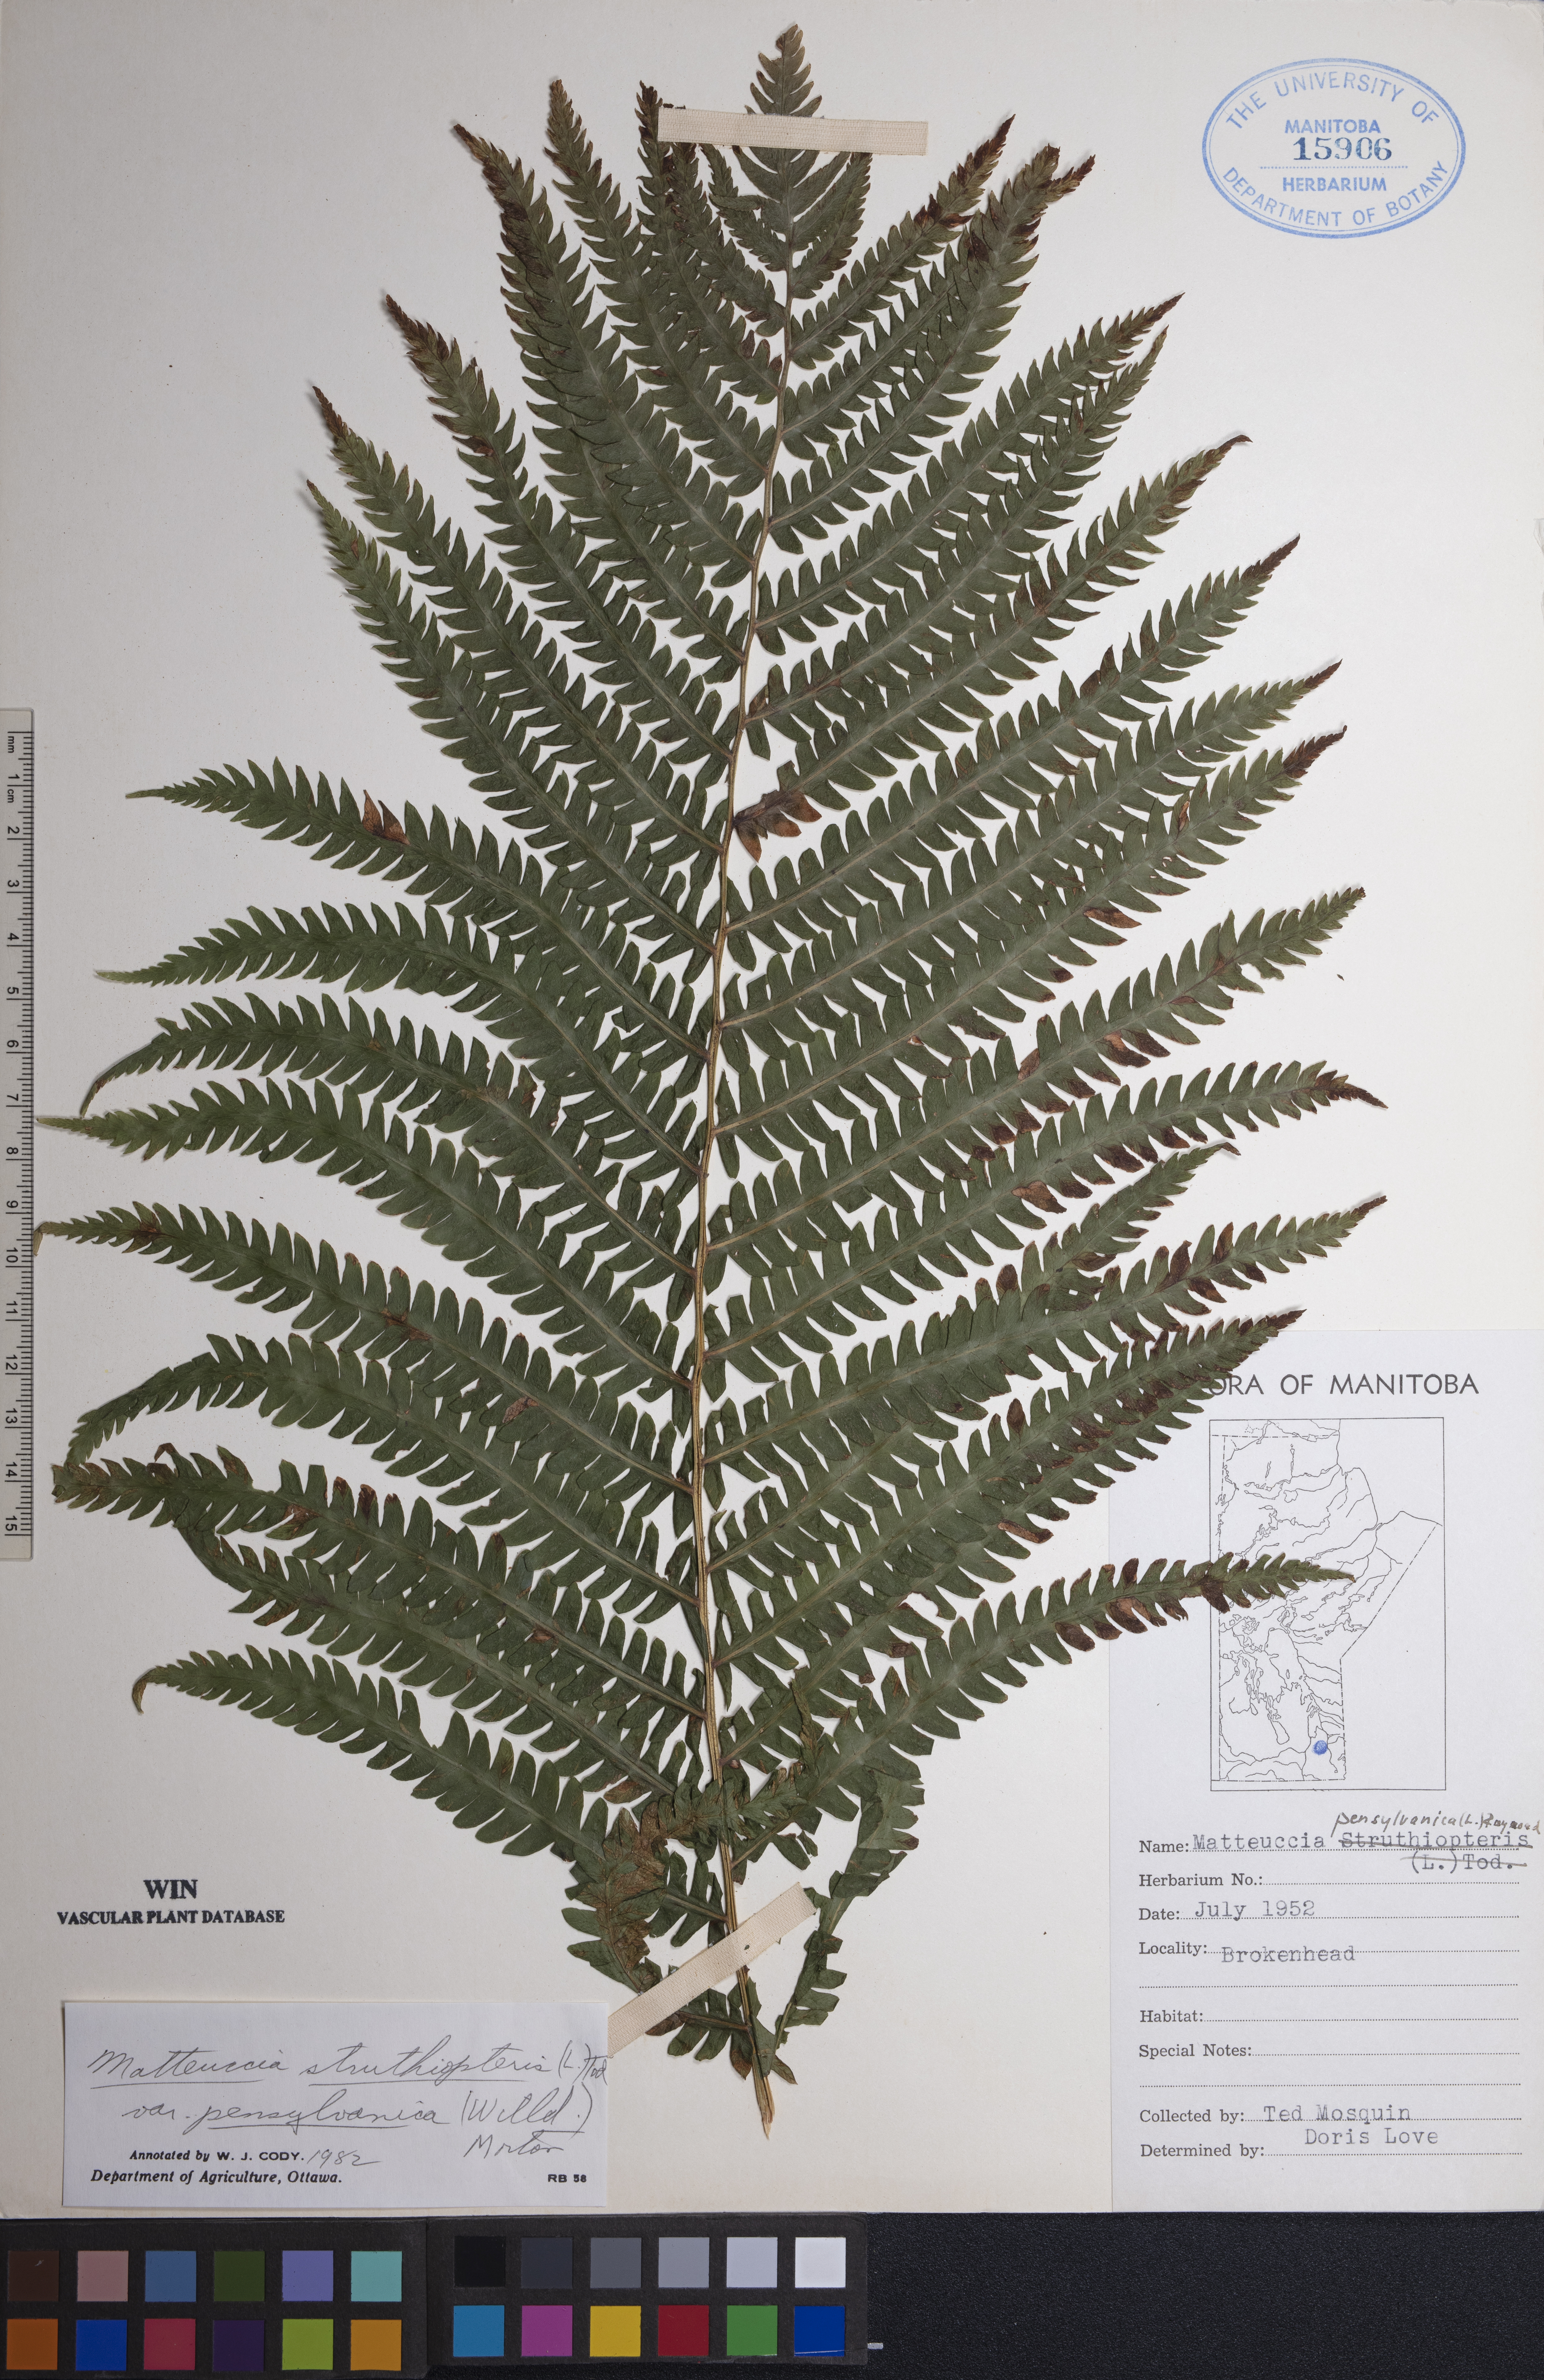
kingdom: Plantae
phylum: Tracheophyta
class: Polypodiopsida
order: Polypodiales
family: Onocleaceae
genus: Matteuccia
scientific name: Matteuccia pensylvanica
